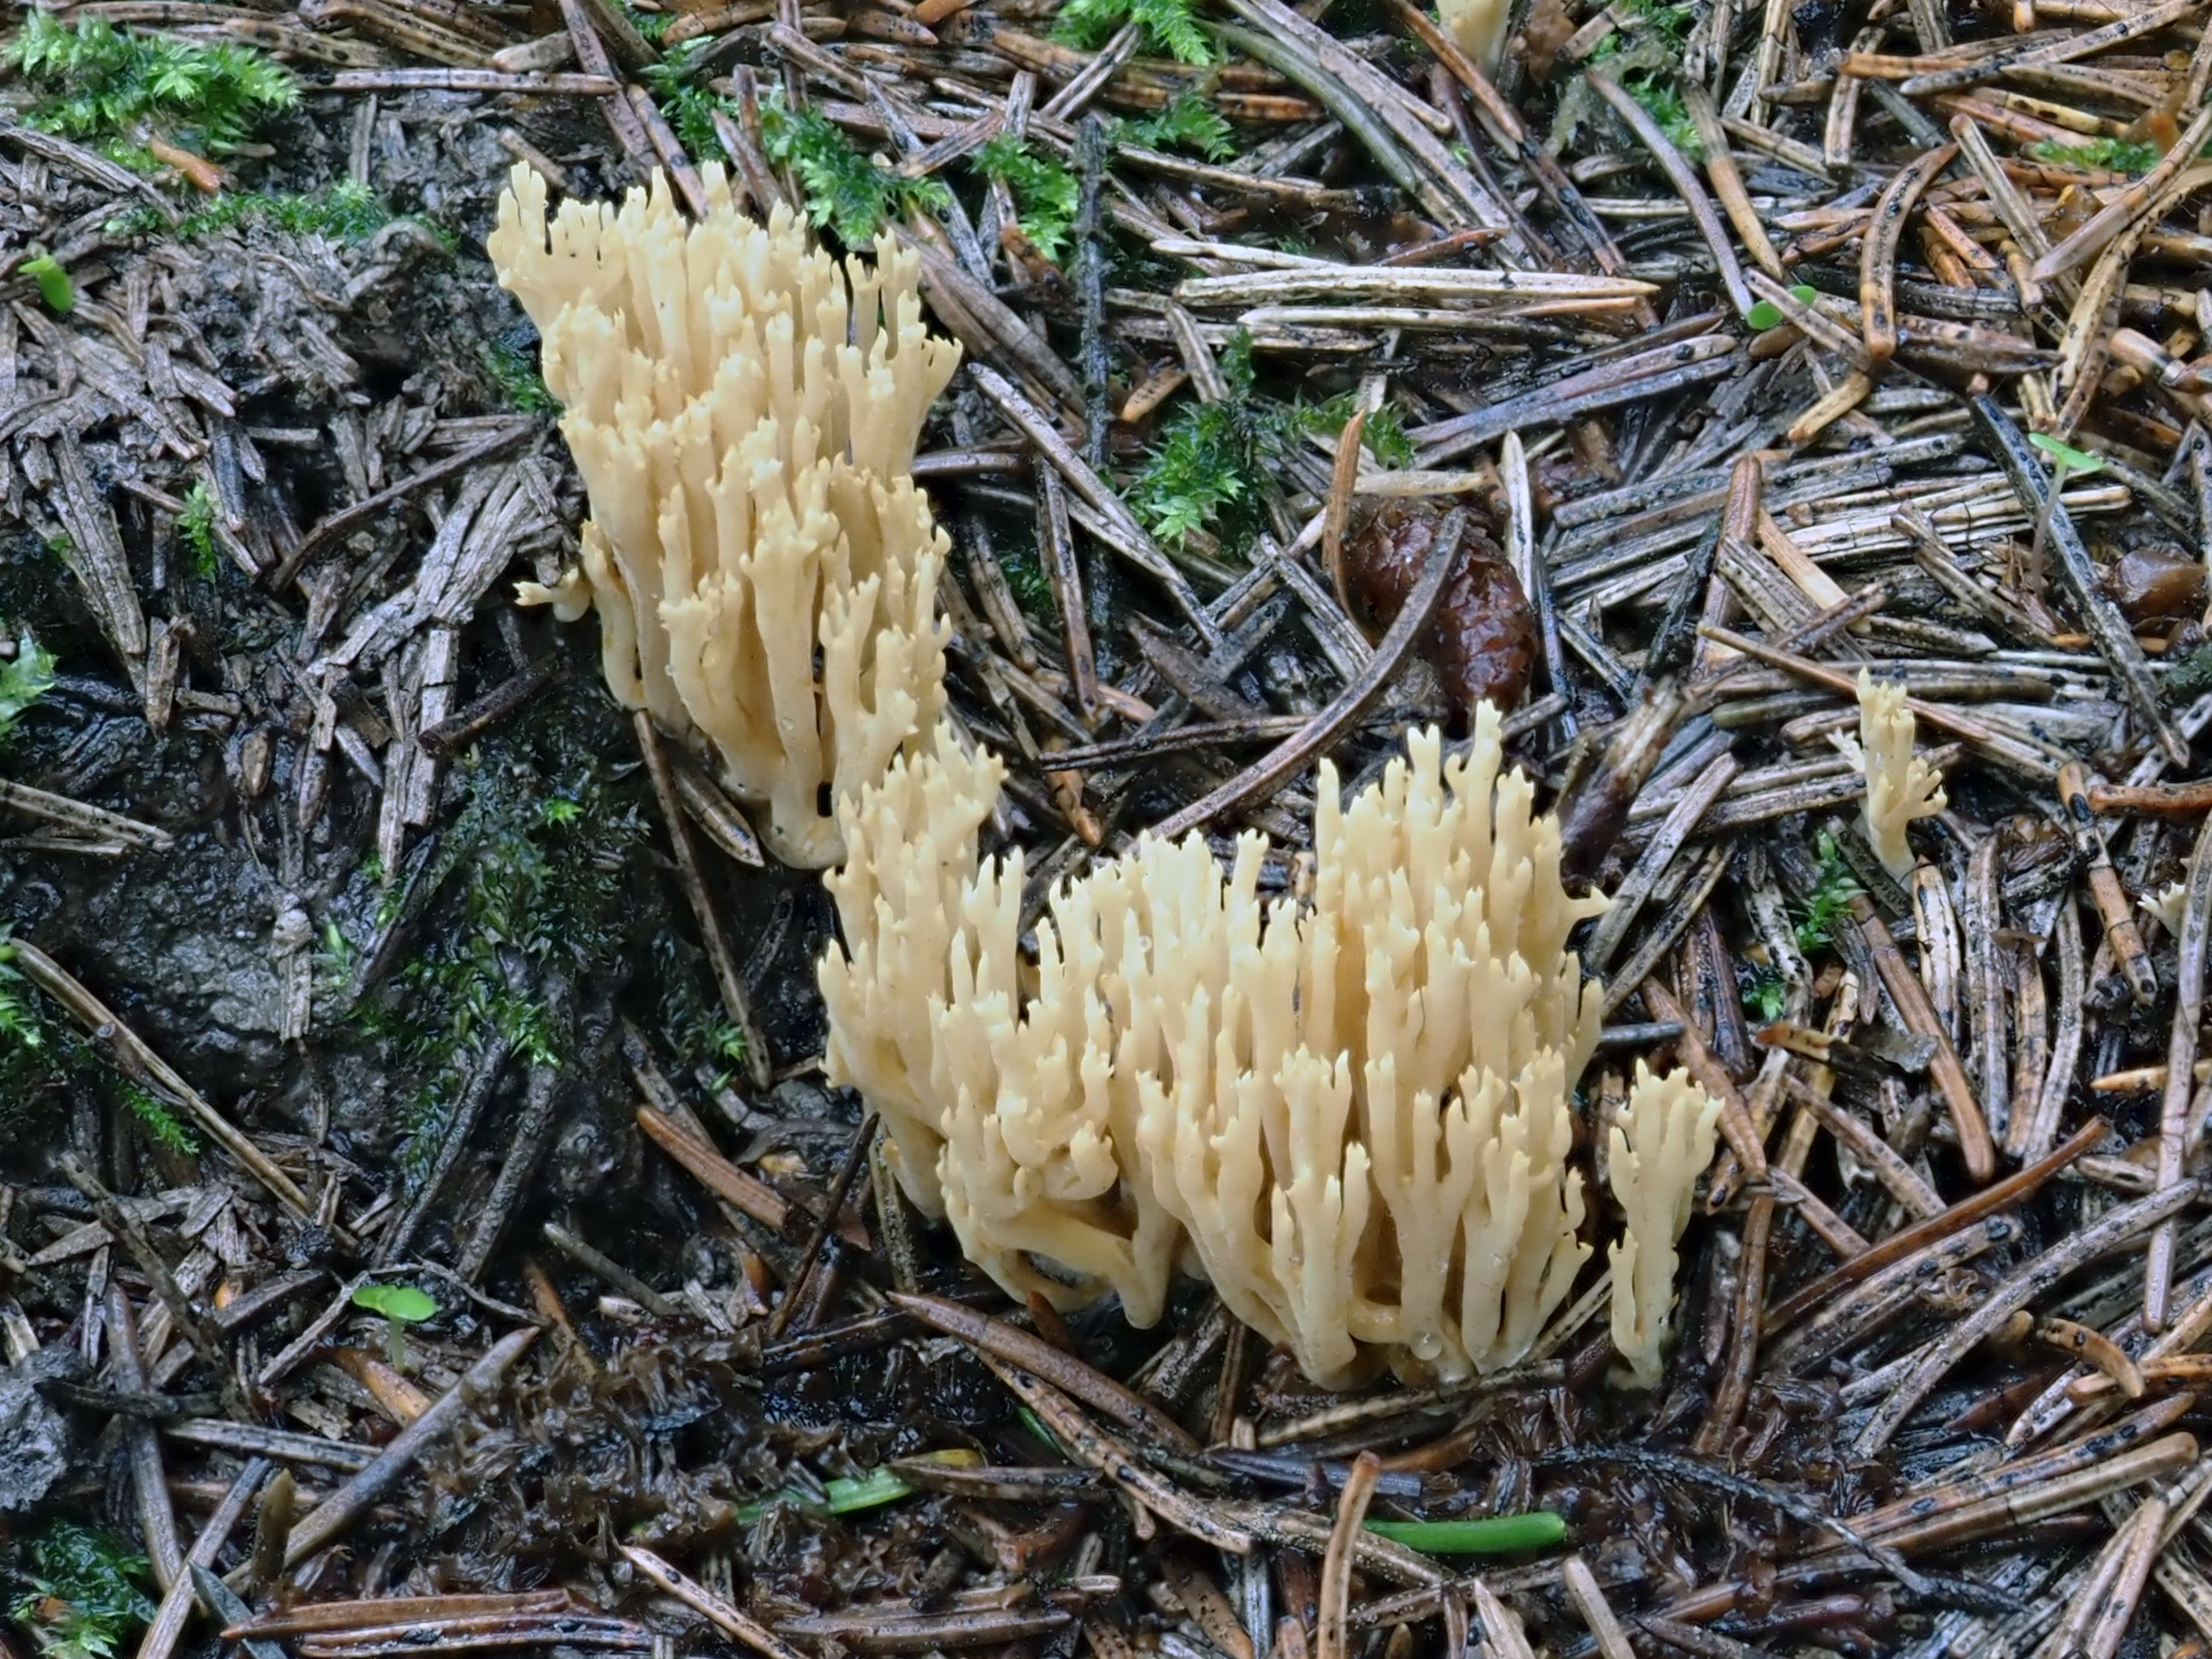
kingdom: Fungi
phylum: Basidiomycota
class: Agaricomycetes
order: Gomphales
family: Gomphaceae
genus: Ramaria
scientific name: Ramaria
